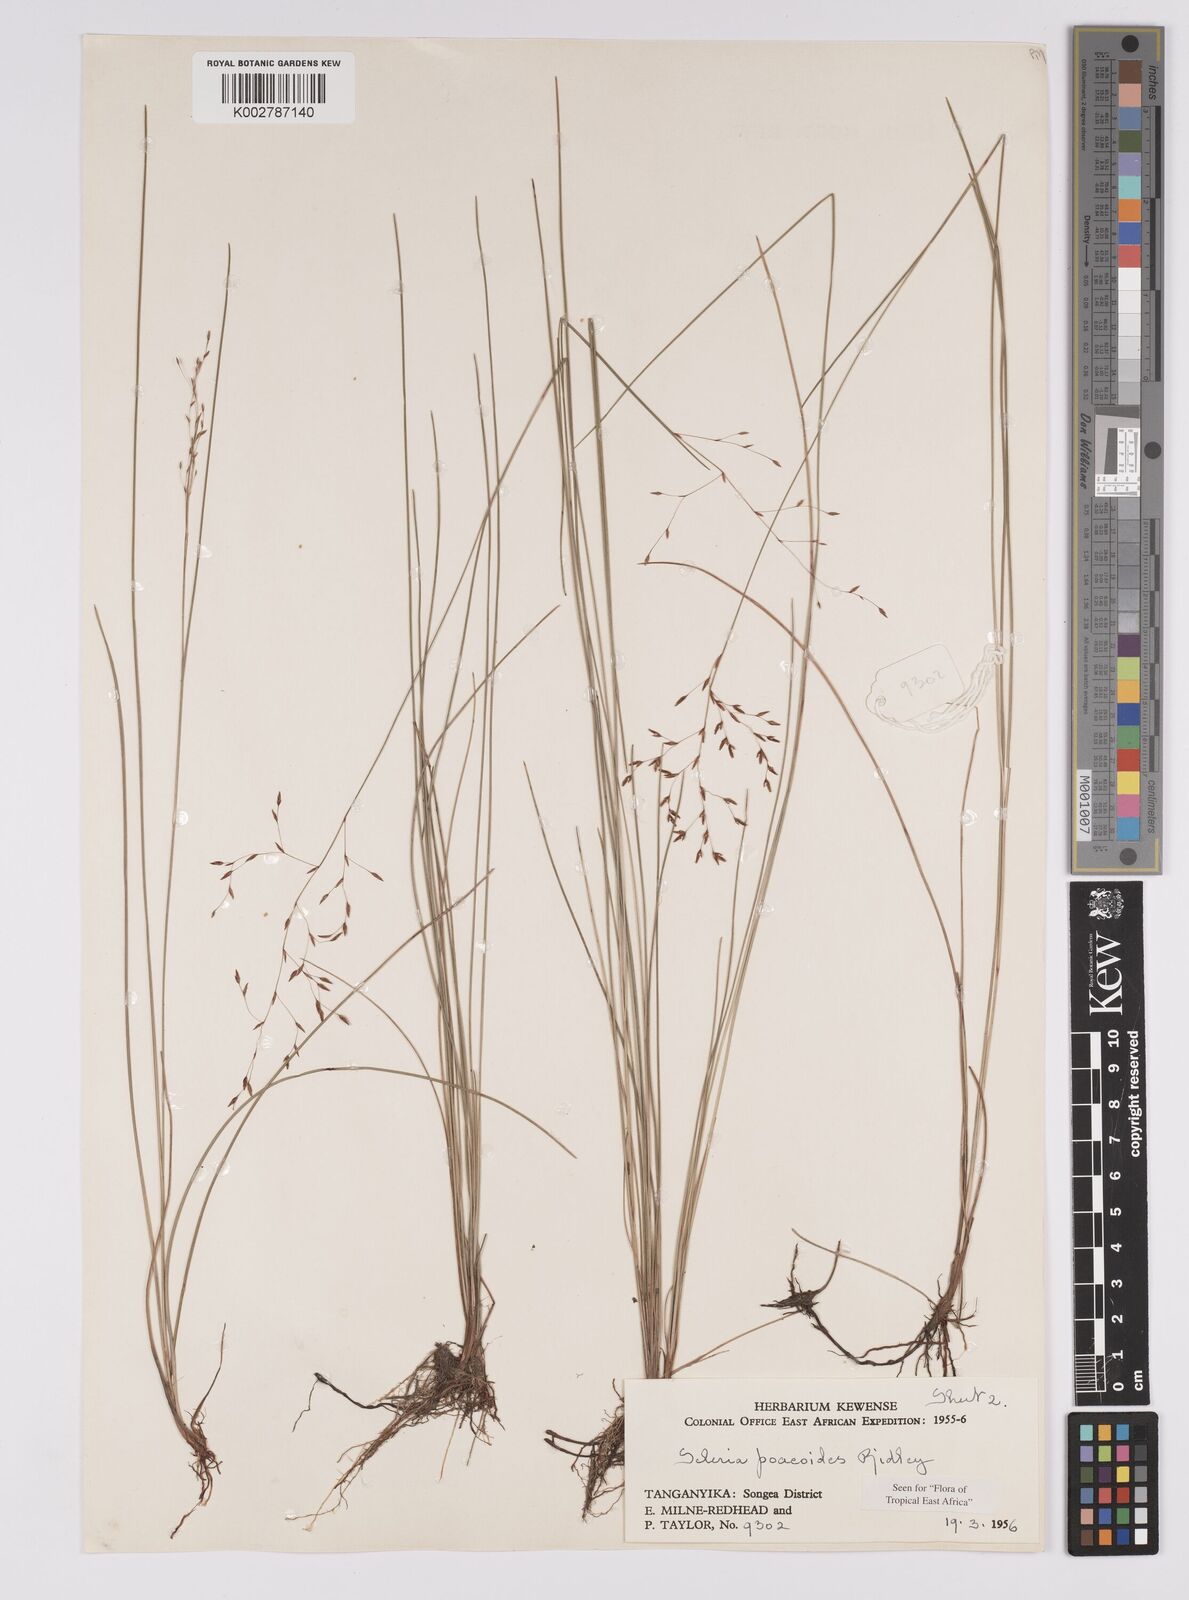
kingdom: Plantae
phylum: Tracheophyta
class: Liliopsida
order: Poales
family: Cyperaceae
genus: Scleria
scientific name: Scleria pooides
